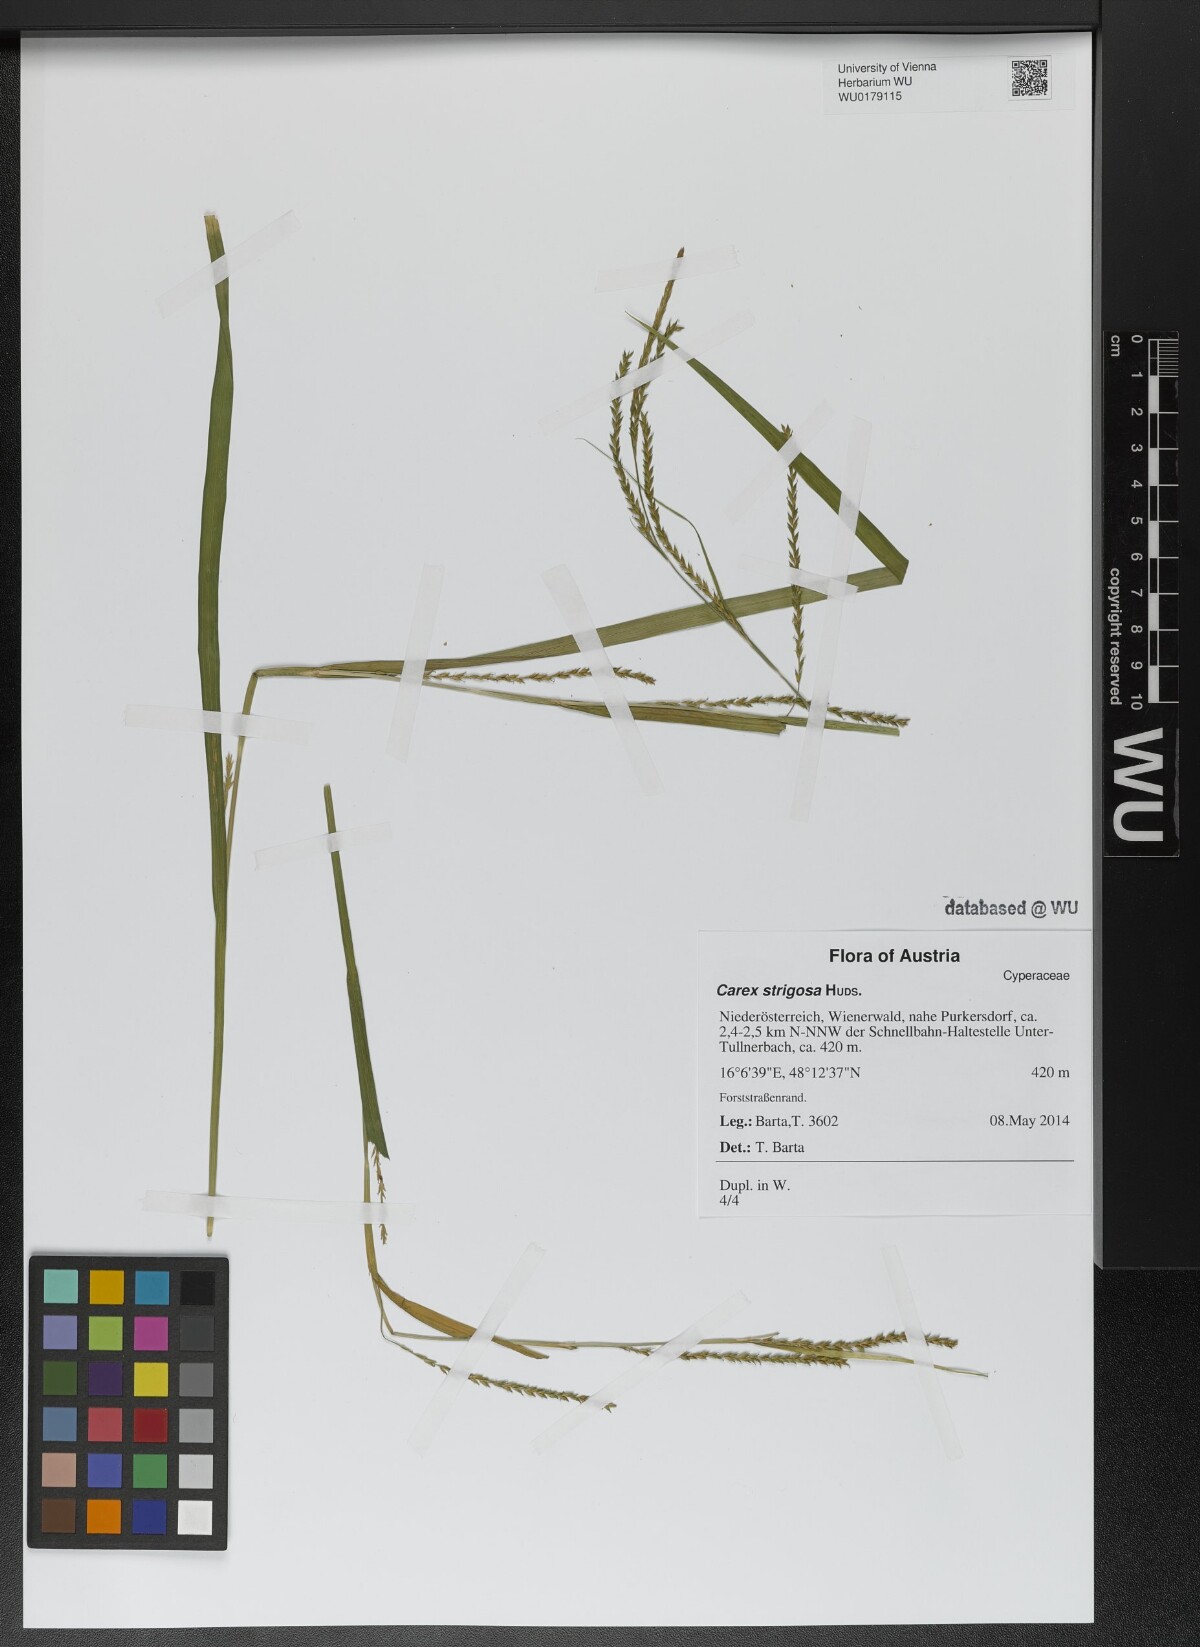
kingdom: Plantae
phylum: Tracheophyta
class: Liliopsida
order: Poales
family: Cyperaceae
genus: Carex
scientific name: Carex strigosa
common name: Thin-spiked wood-sedge
